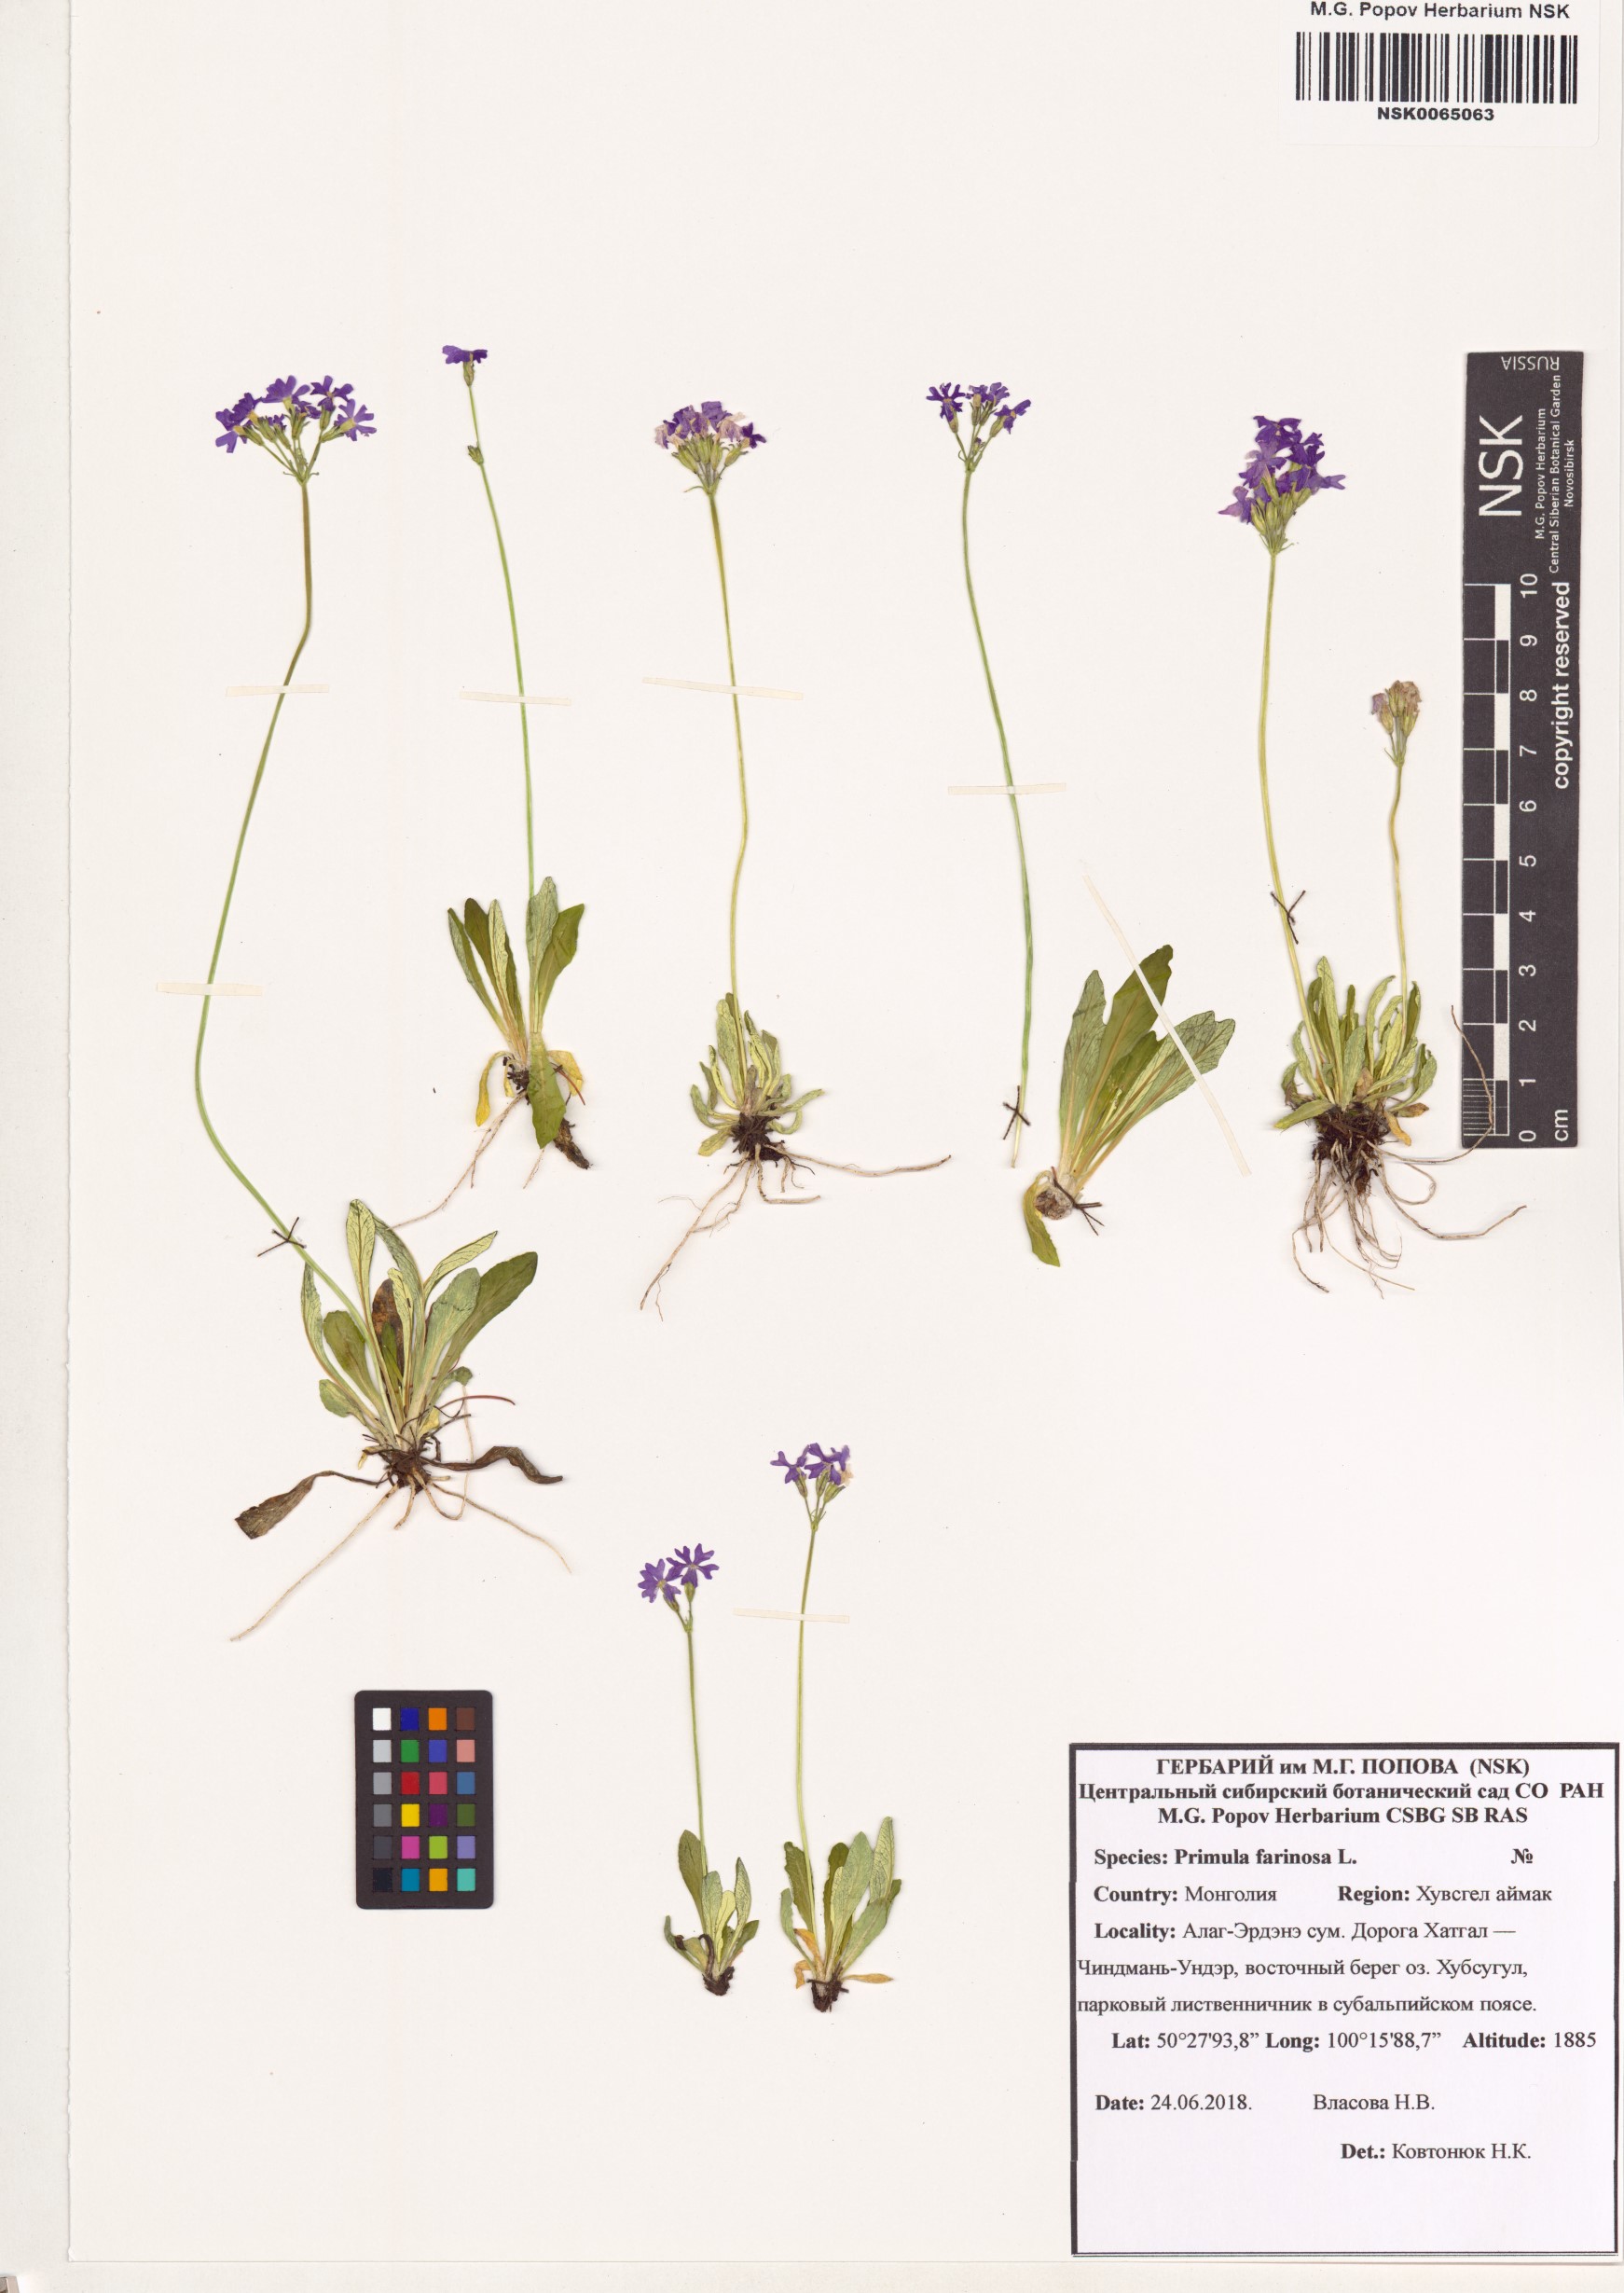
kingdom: Plantae
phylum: Tracheophyta
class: Magnoliopsida
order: Ericales
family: Primulaceae
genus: Primula
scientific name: Primula farinosa
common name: Bird's-eye primrose
